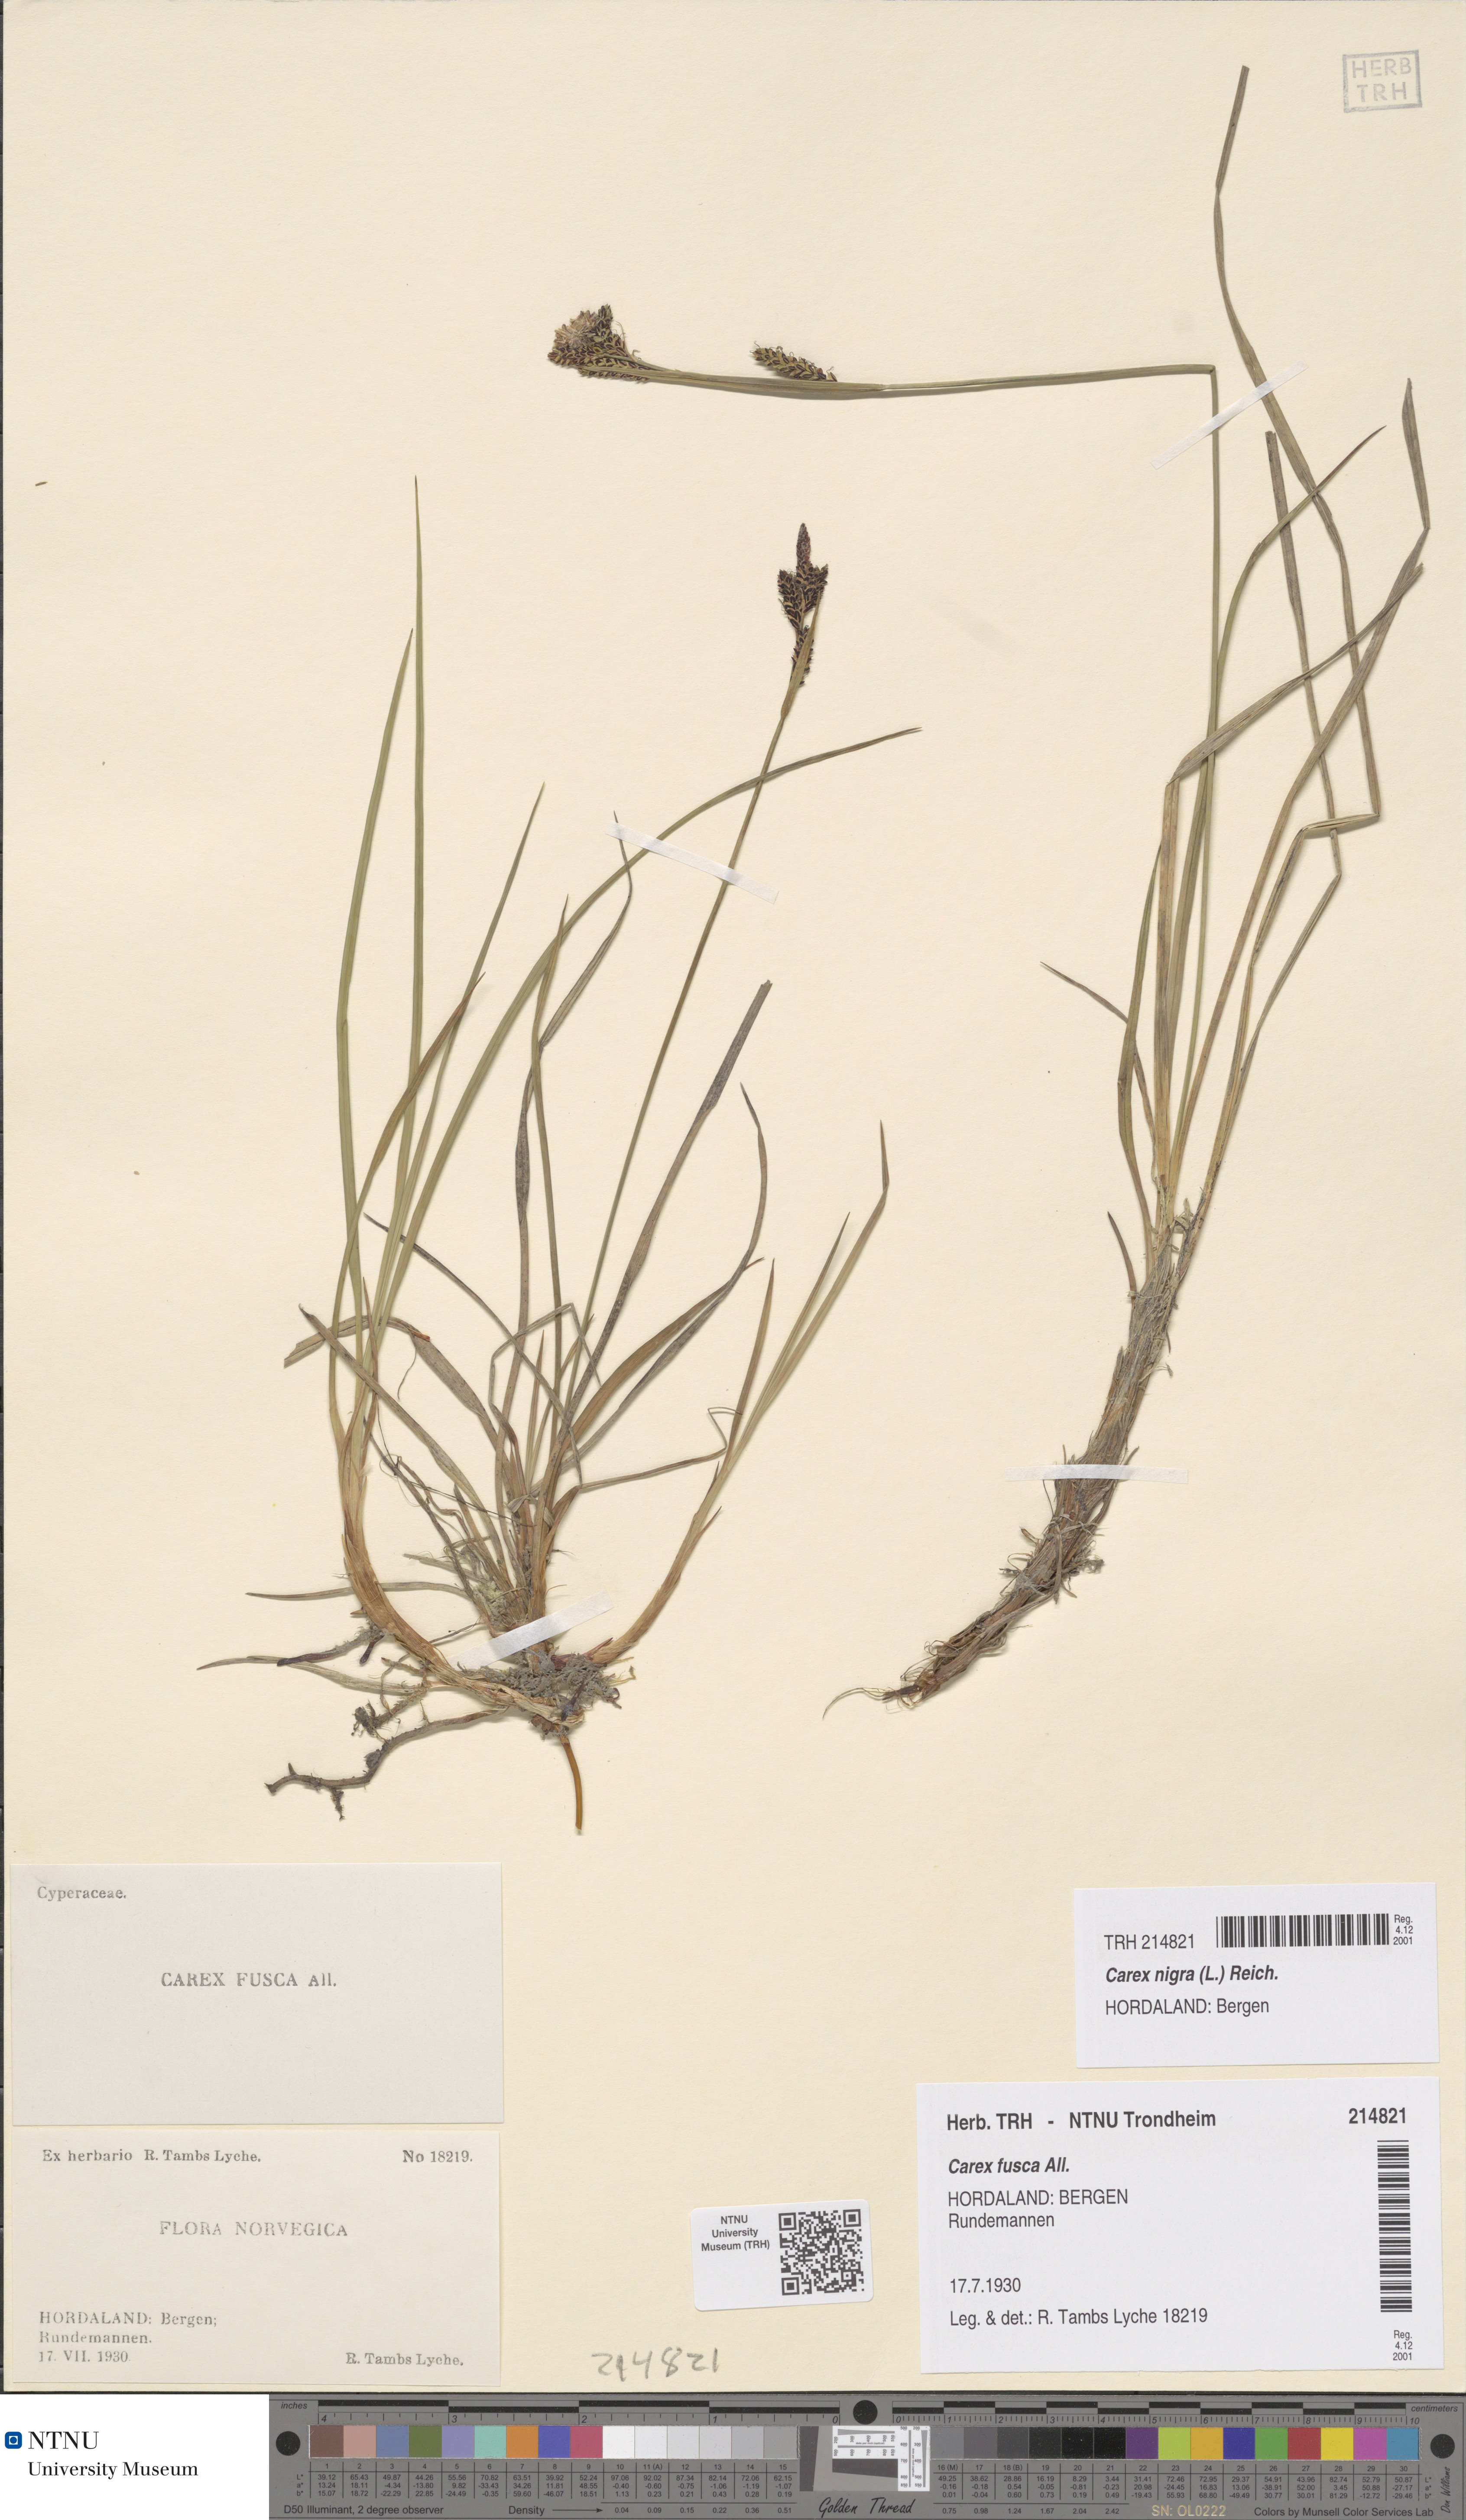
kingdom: Plantae
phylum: Tracheophyta
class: Liliopsida
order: Poales
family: Cyperaceae
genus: Carex
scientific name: Carex nigra
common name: Common sedge
